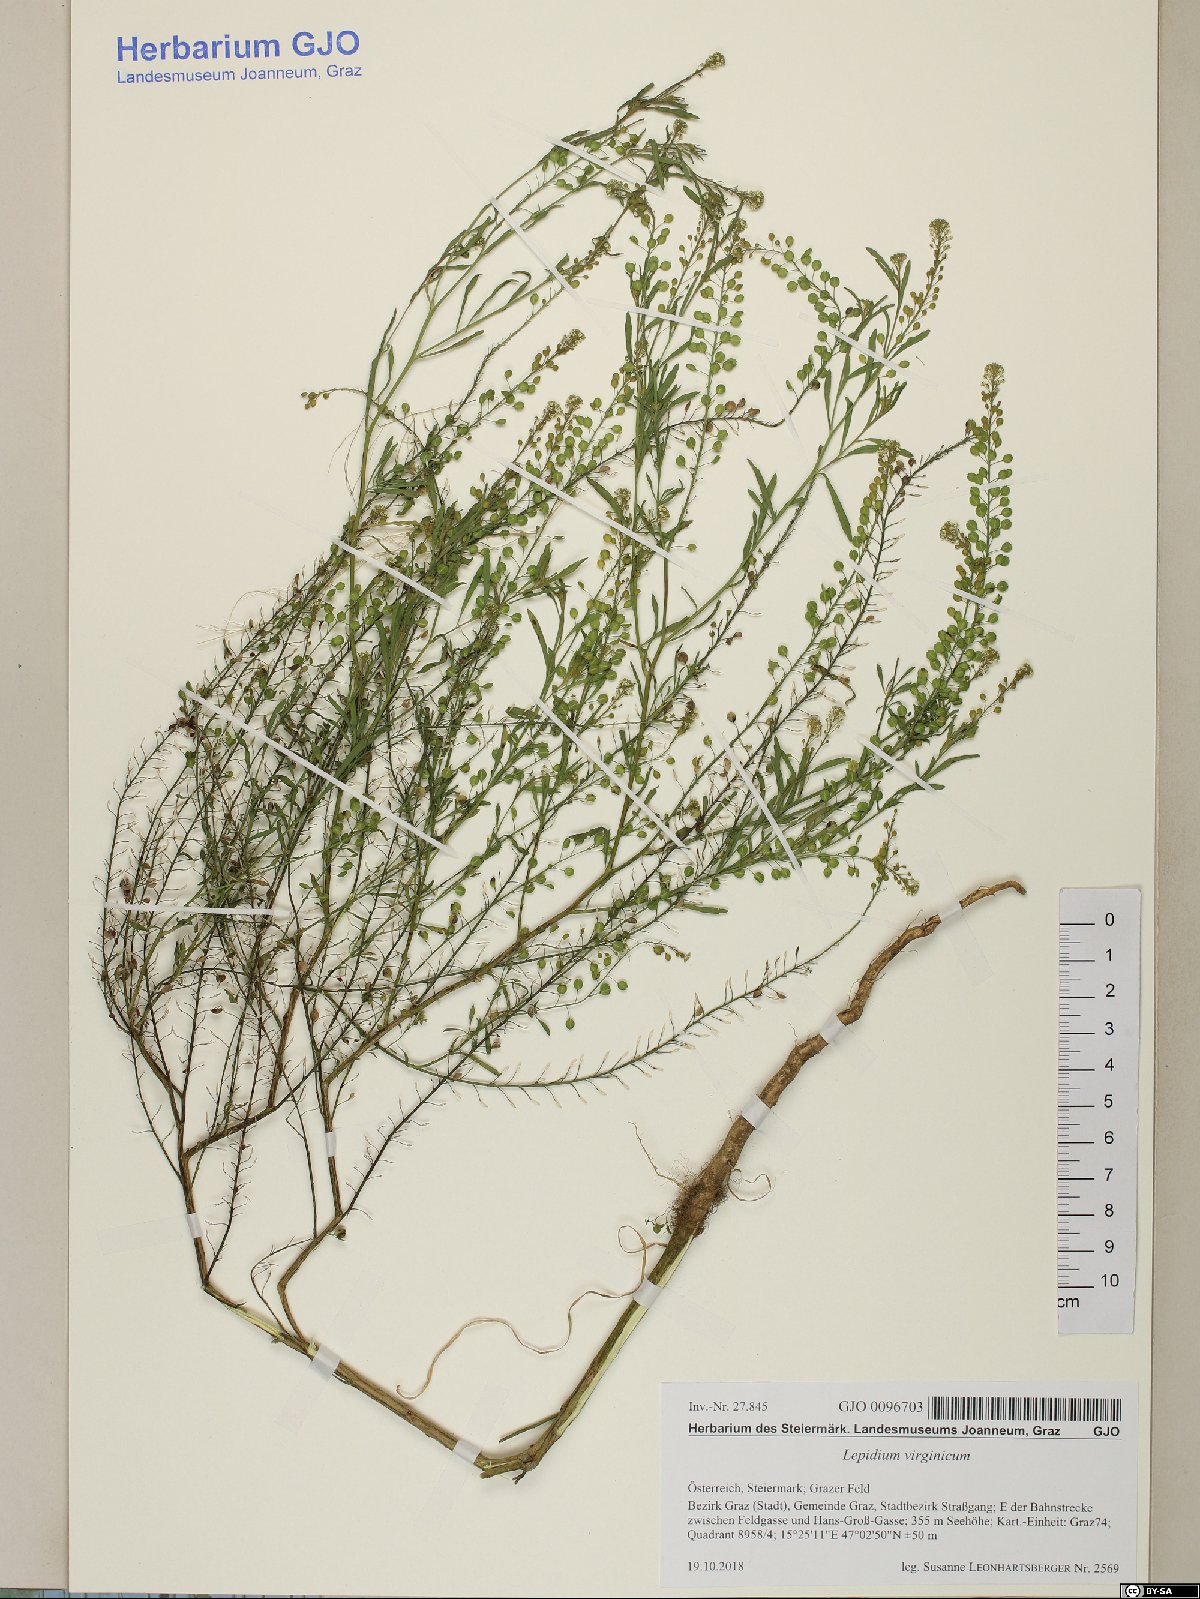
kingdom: Plantae
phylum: Tracheophyta
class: Magnoliopsida
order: Brassicales
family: Brassicaceae
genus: Lepidium
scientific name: Lepidium virginicum
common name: Least pepperwort
